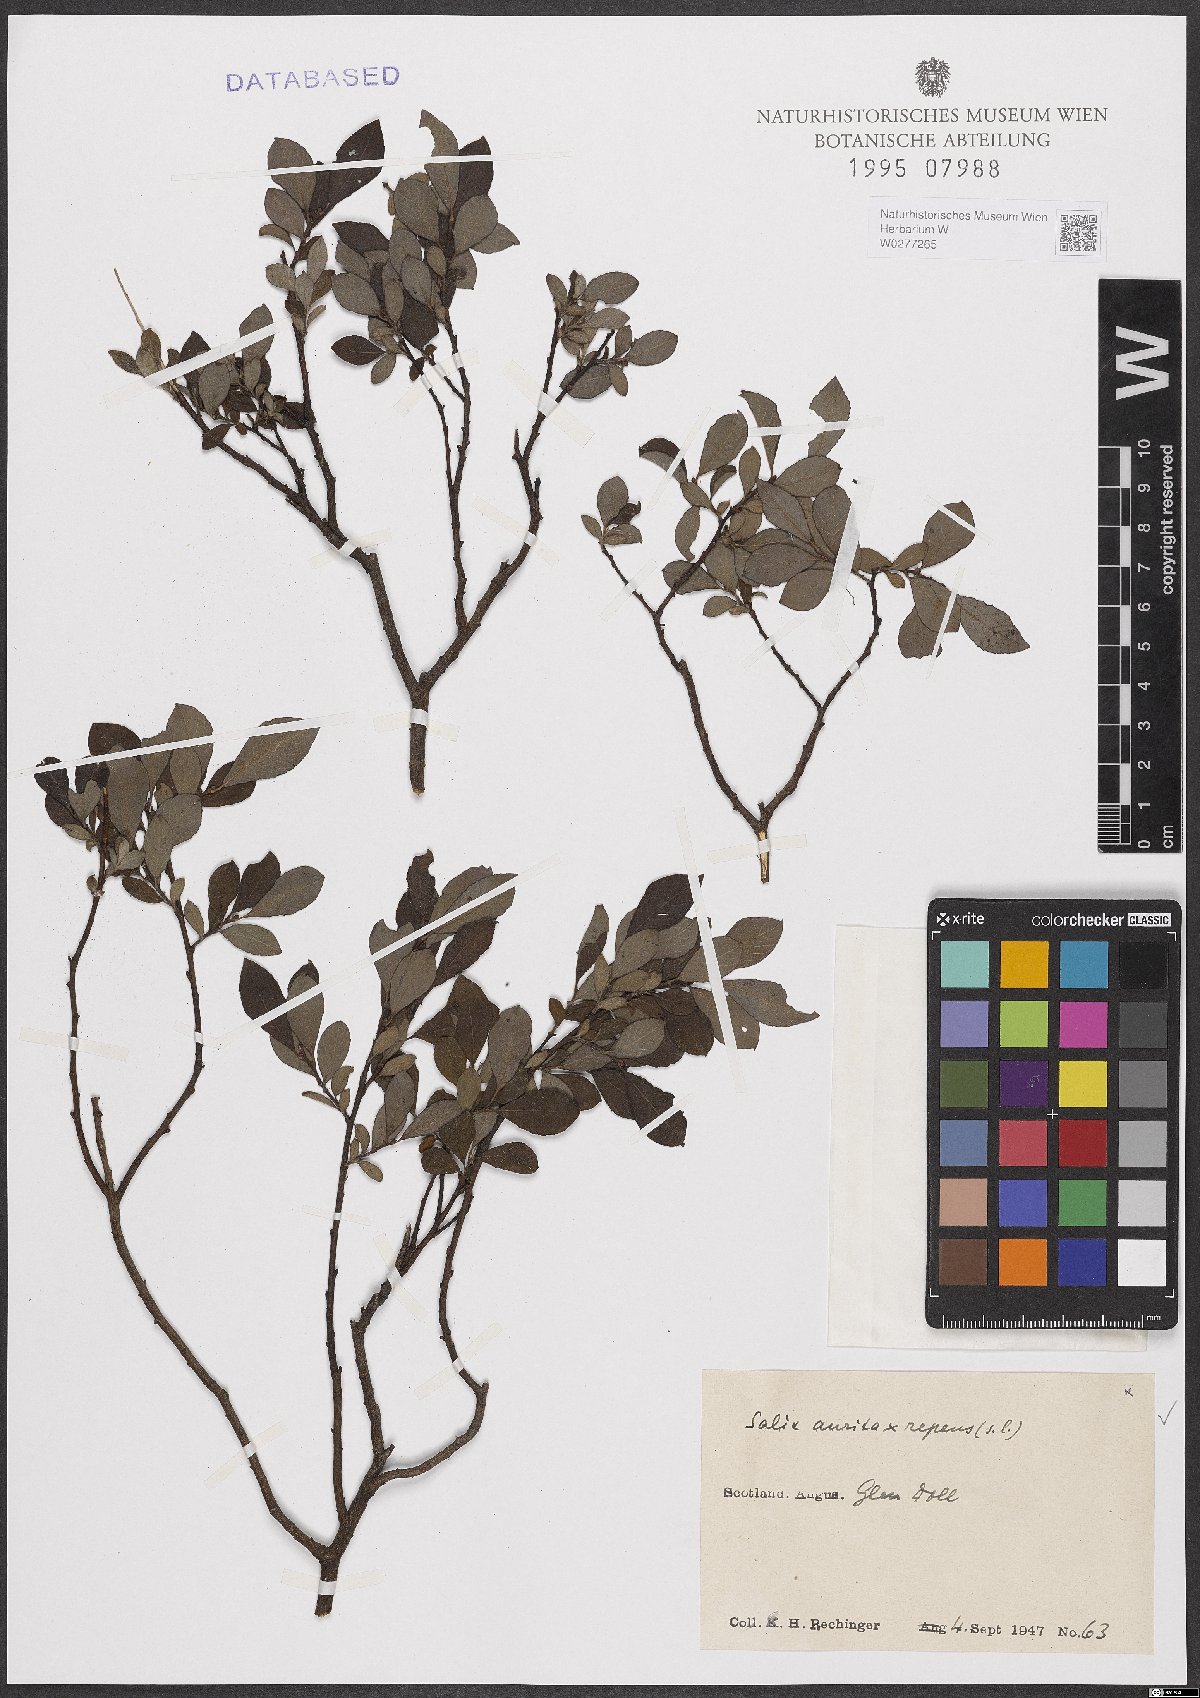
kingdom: Plantae
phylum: Tracheophyta
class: Magnoliopsida
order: Malpighiales
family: Salicaceae
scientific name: Salicaceae
